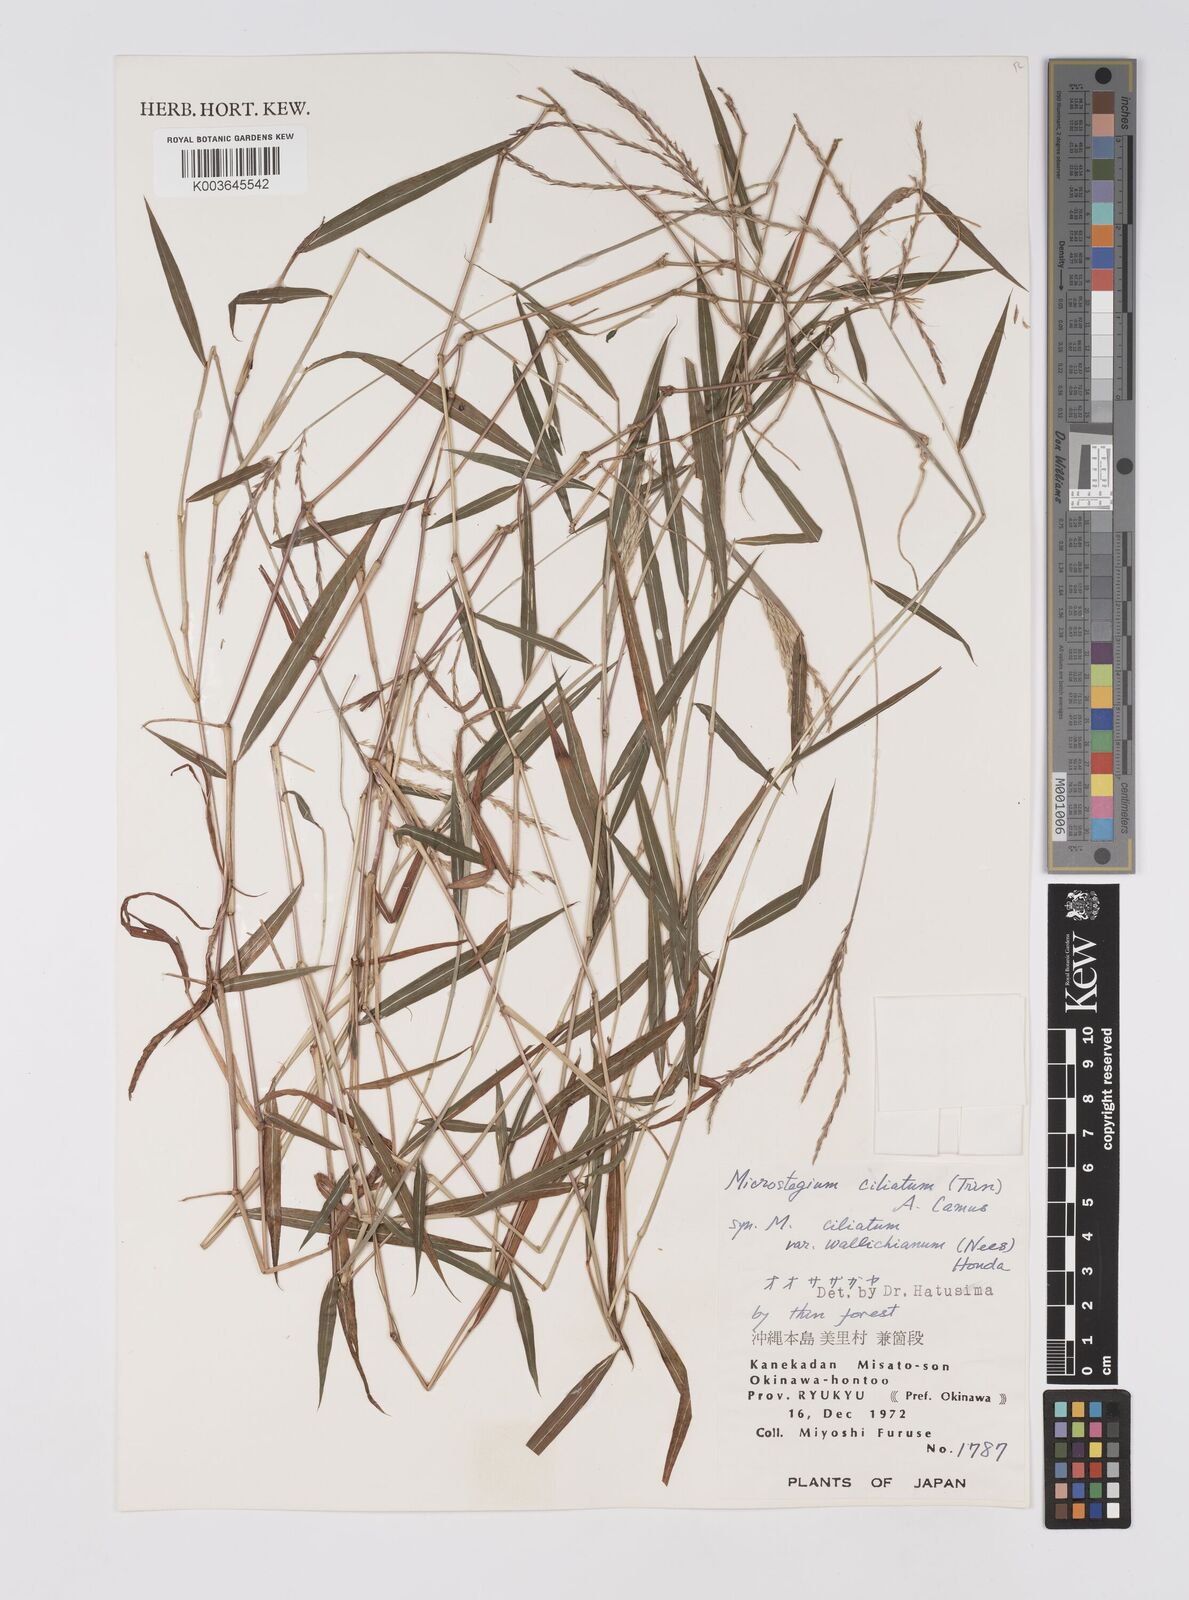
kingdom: Plantae
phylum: Tracheophyta
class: Liliopsida
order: Poales
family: Poaceae
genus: Microstegium
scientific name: Microstegium fasciculatum
